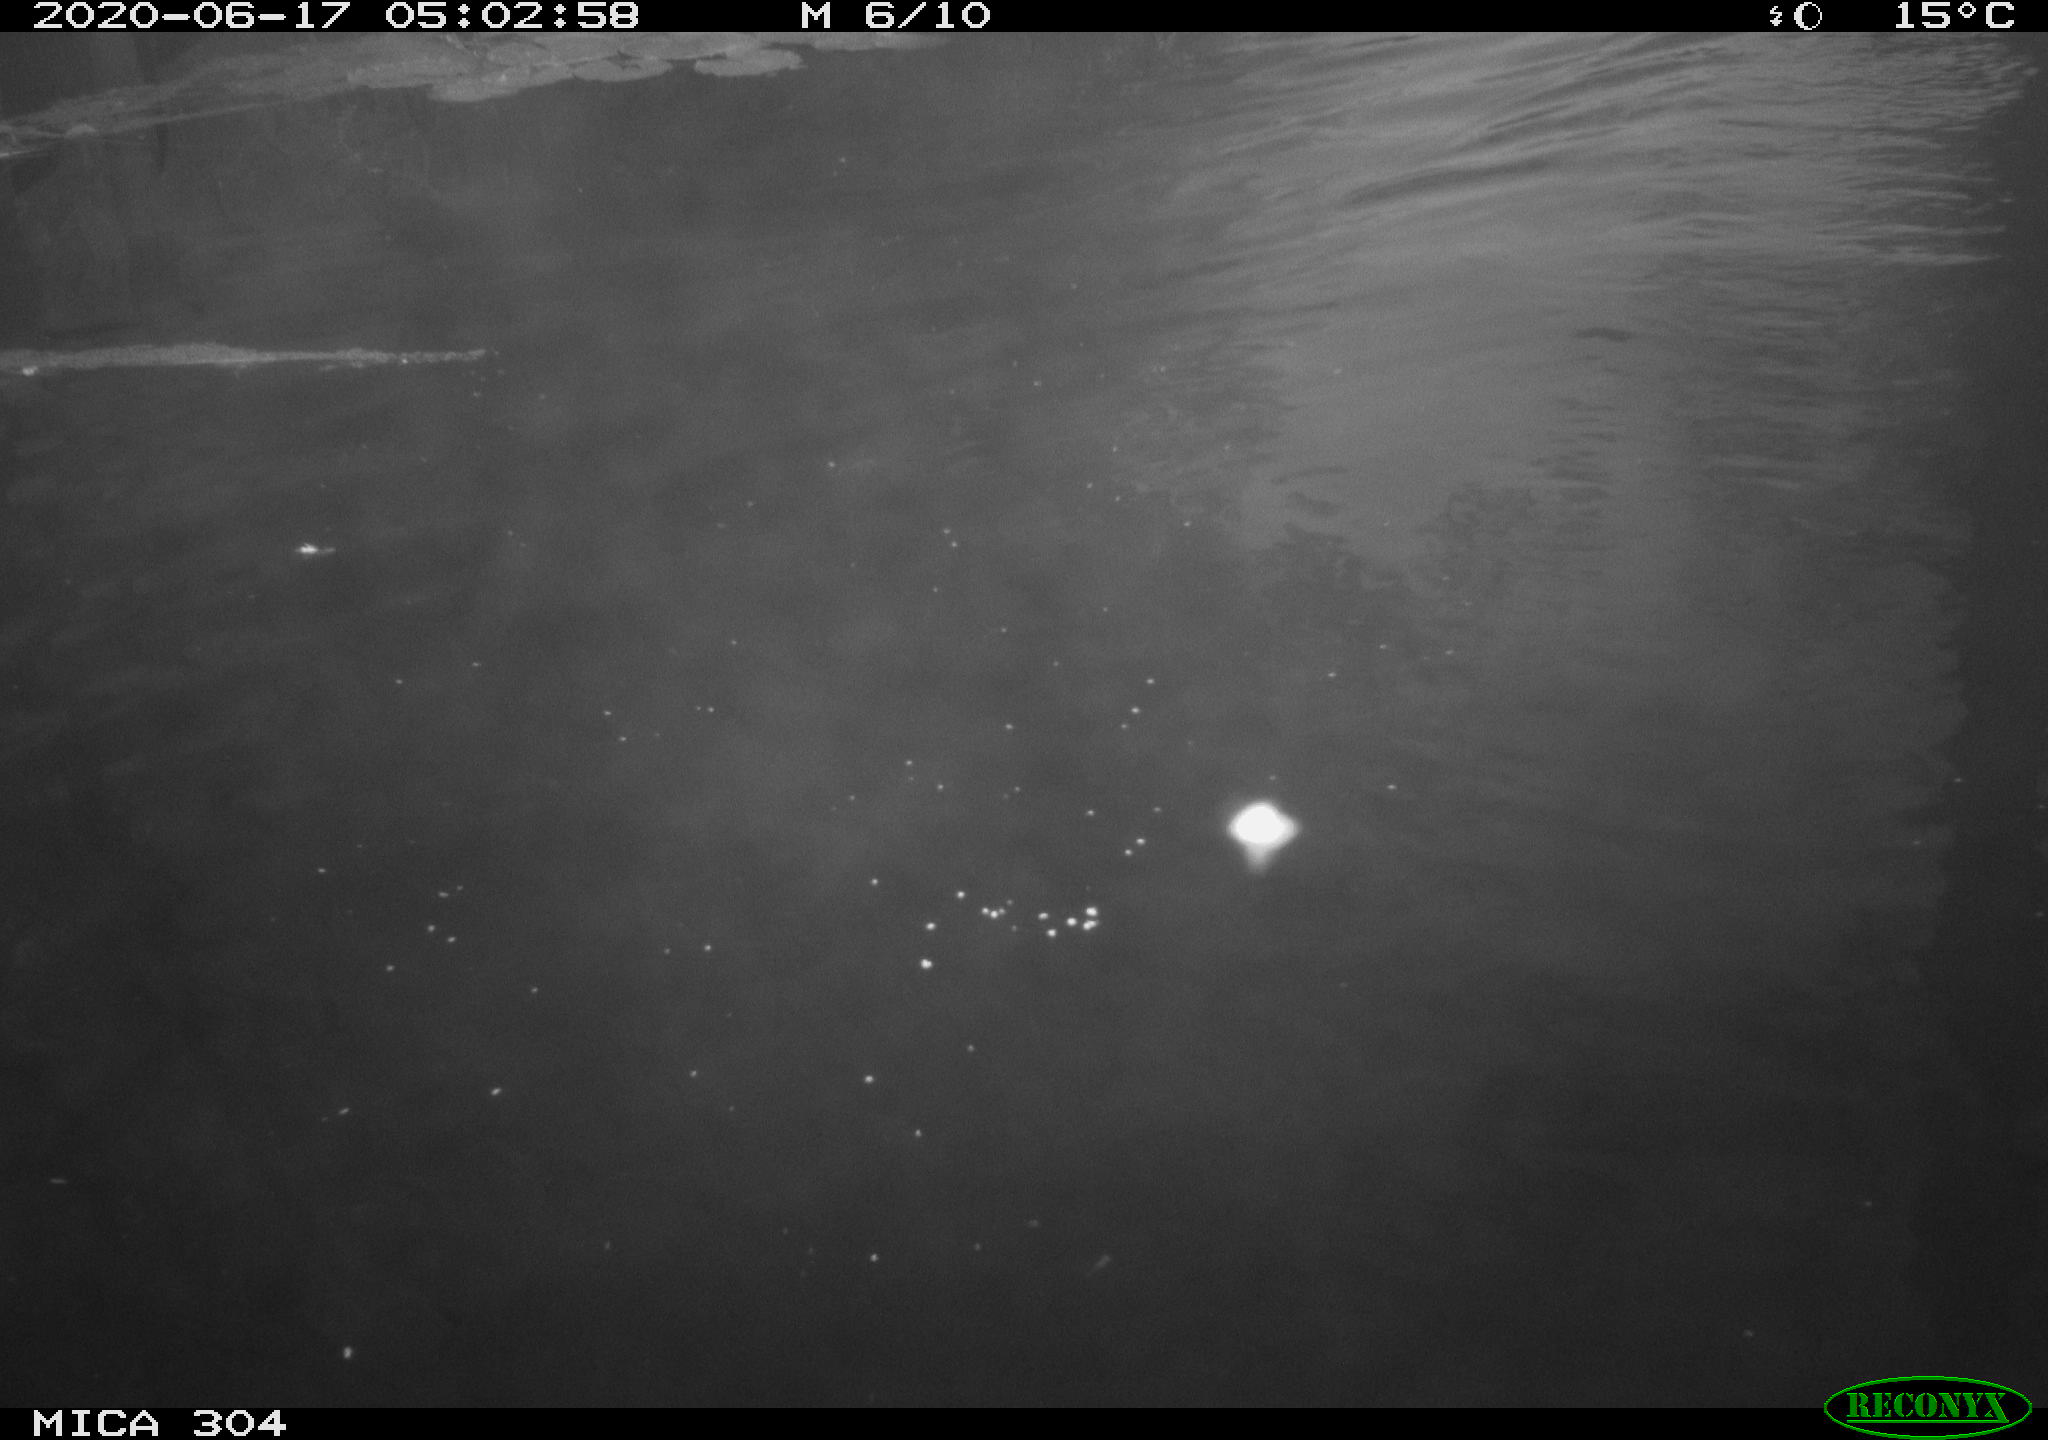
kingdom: Animalia
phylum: Chordata
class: Aves
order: Anseriformes
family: Anatidae
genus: Anas
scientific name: Anas platyrhynchos
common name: Mallard
